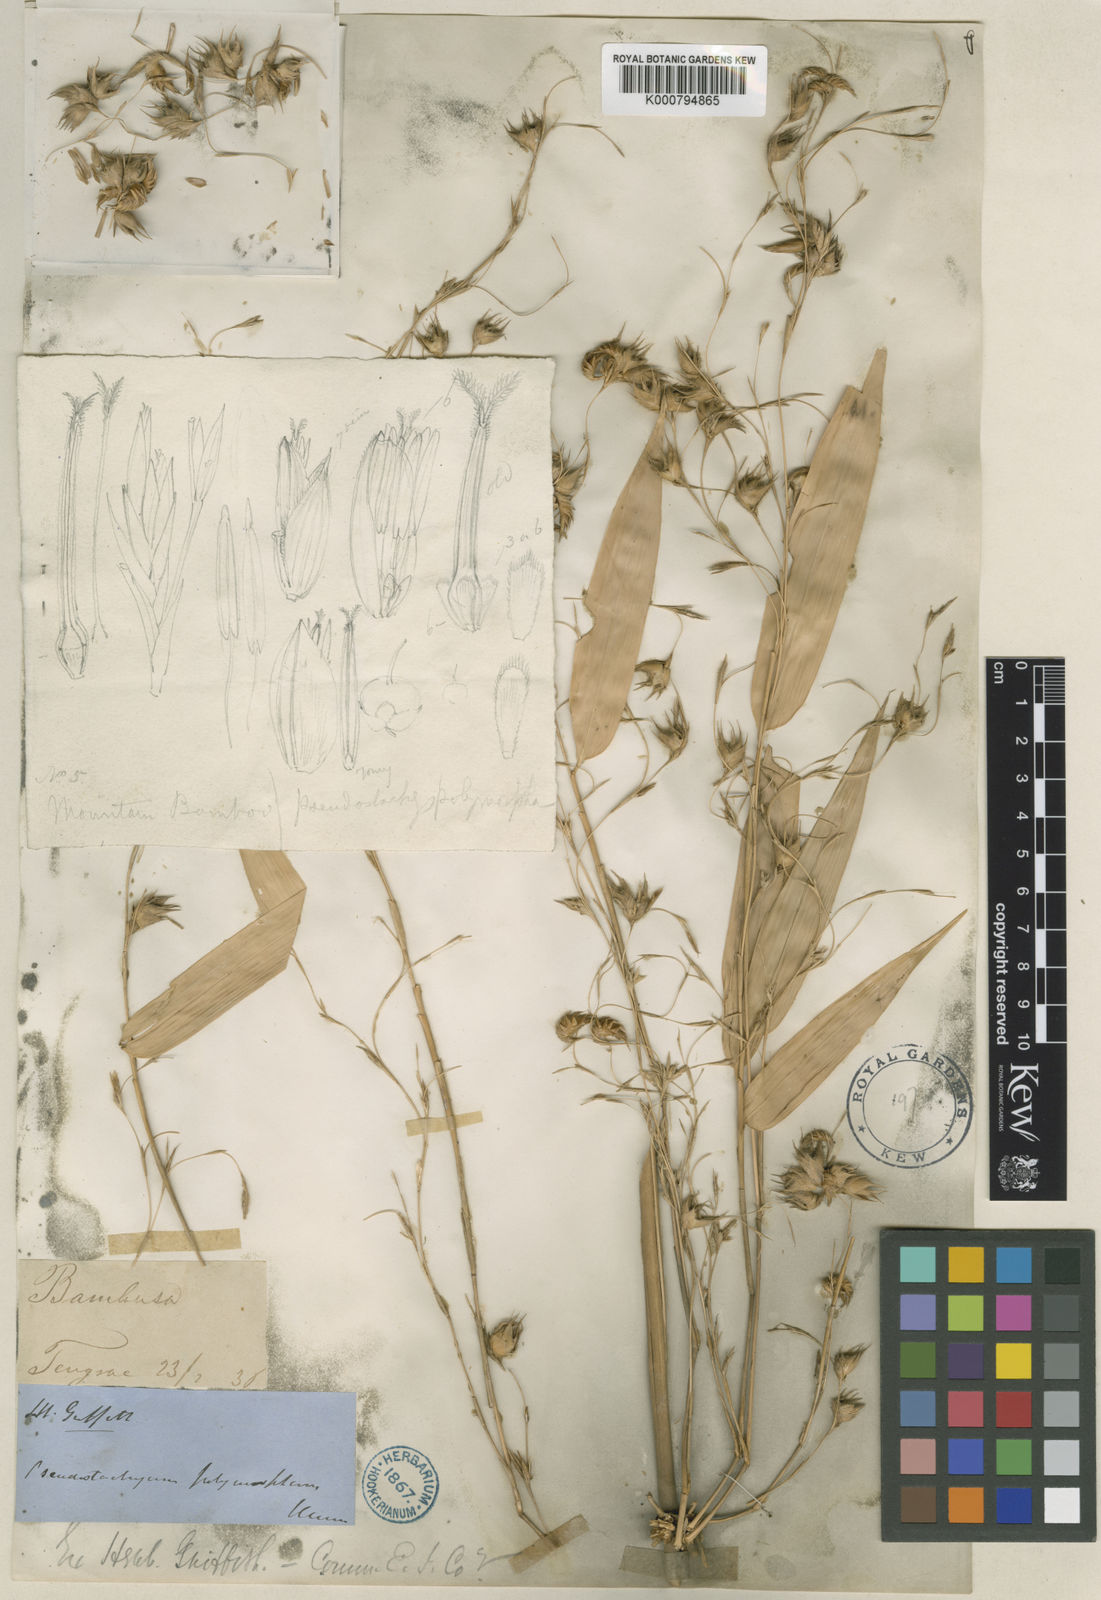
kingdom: Plantae
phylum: Tracheophyta
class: Liliopsida
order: Poales
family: Poaceae
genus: Pseudostachyum
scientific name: Pseudostachyum polymorphum
